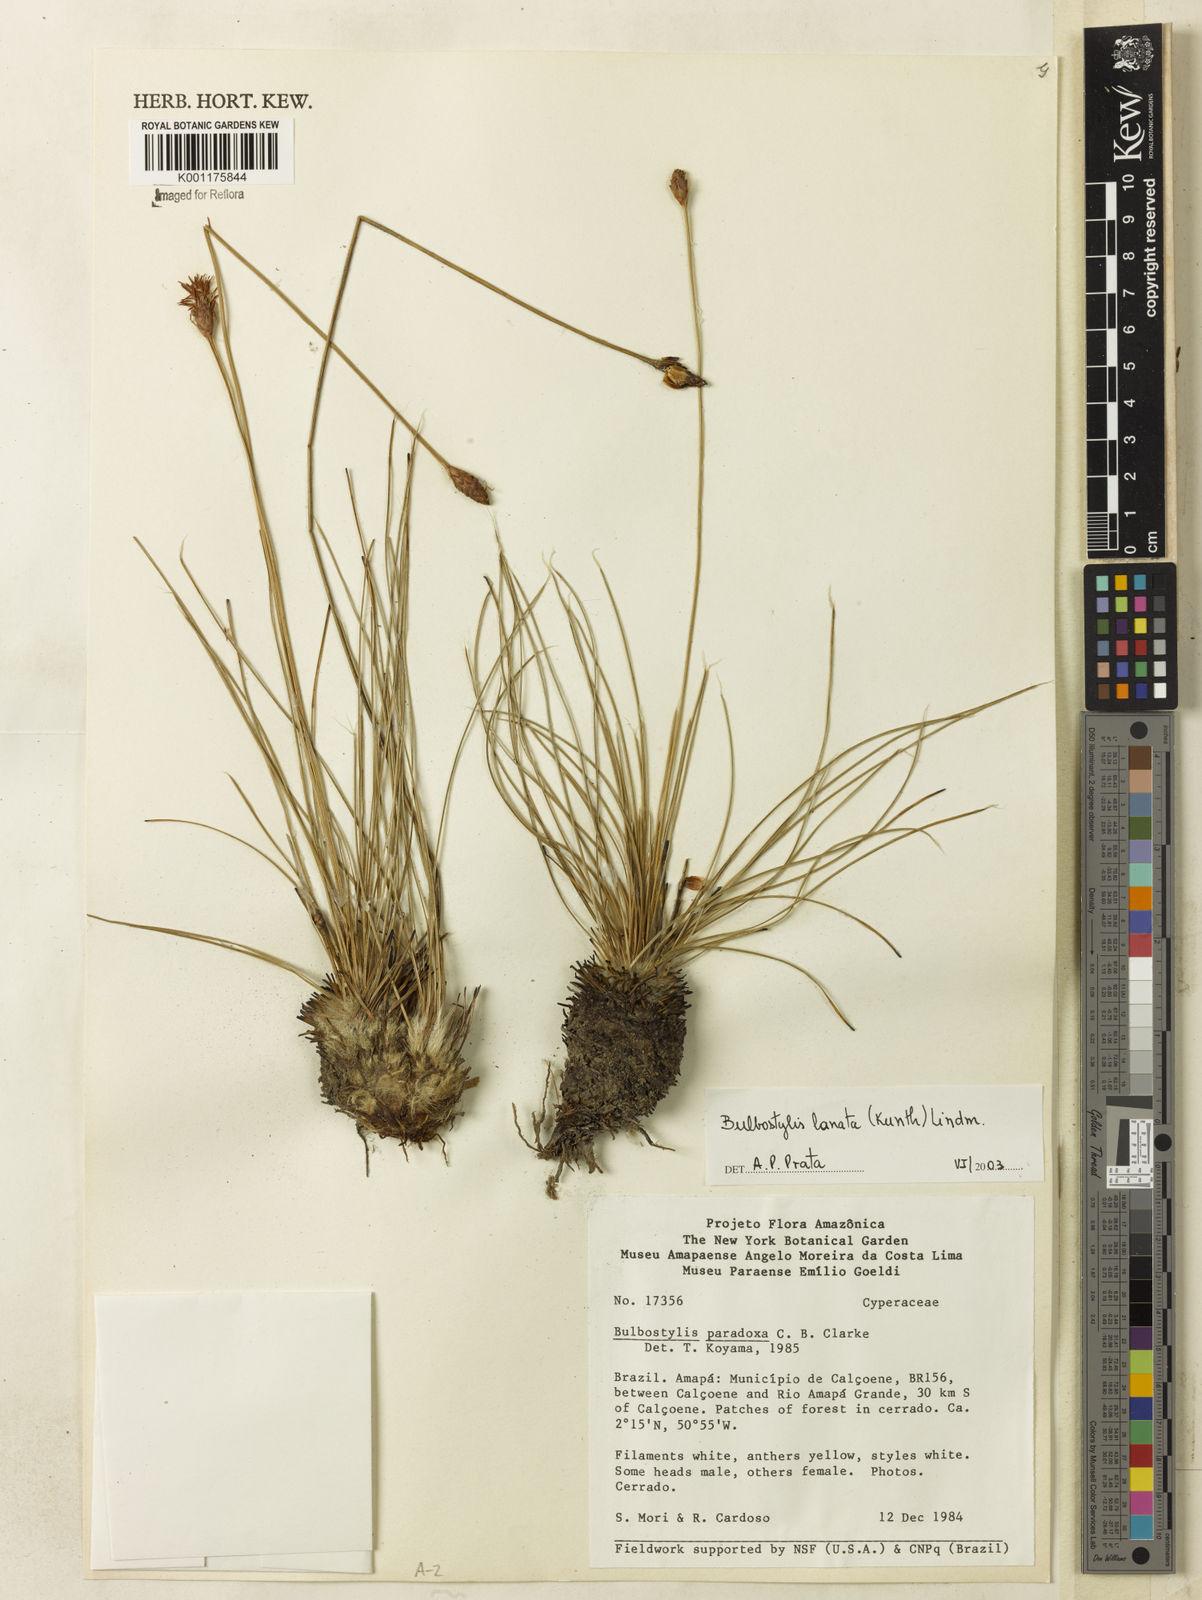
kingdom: Plantae
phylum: Tracheophyta
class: Liliopsida
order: Poales
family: Cyperaceae
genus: Bulbostylis
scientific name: Bulbostylis lanata
